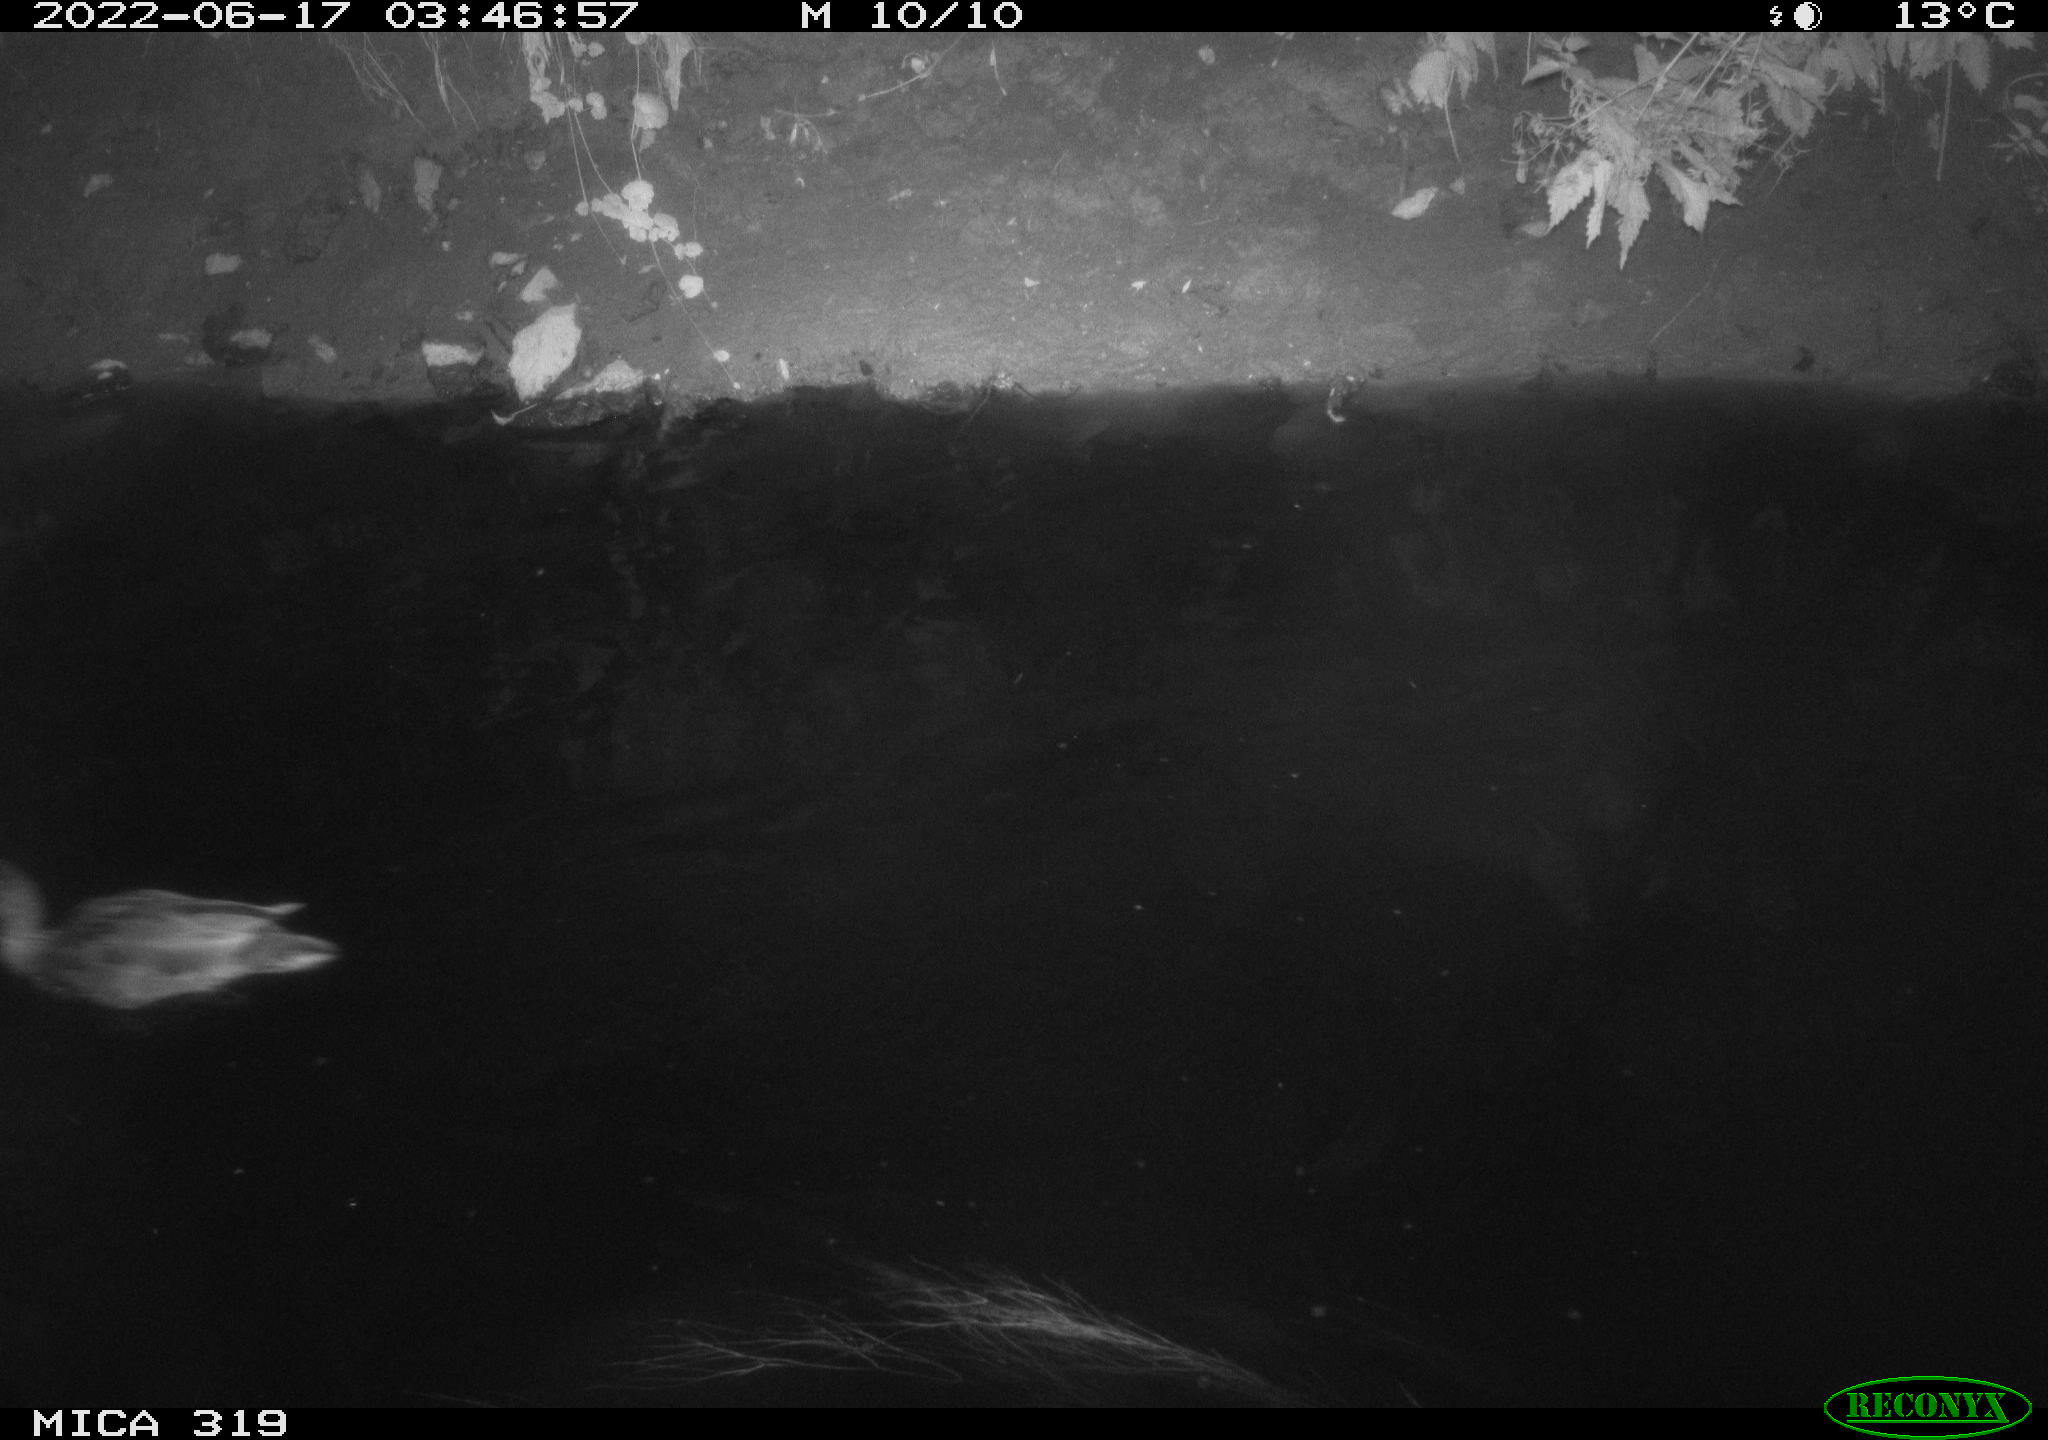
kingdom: Animalia
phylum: Chordata
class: Aves
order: Anseriformes
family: Anatidae
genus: Anas
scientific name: Anas
